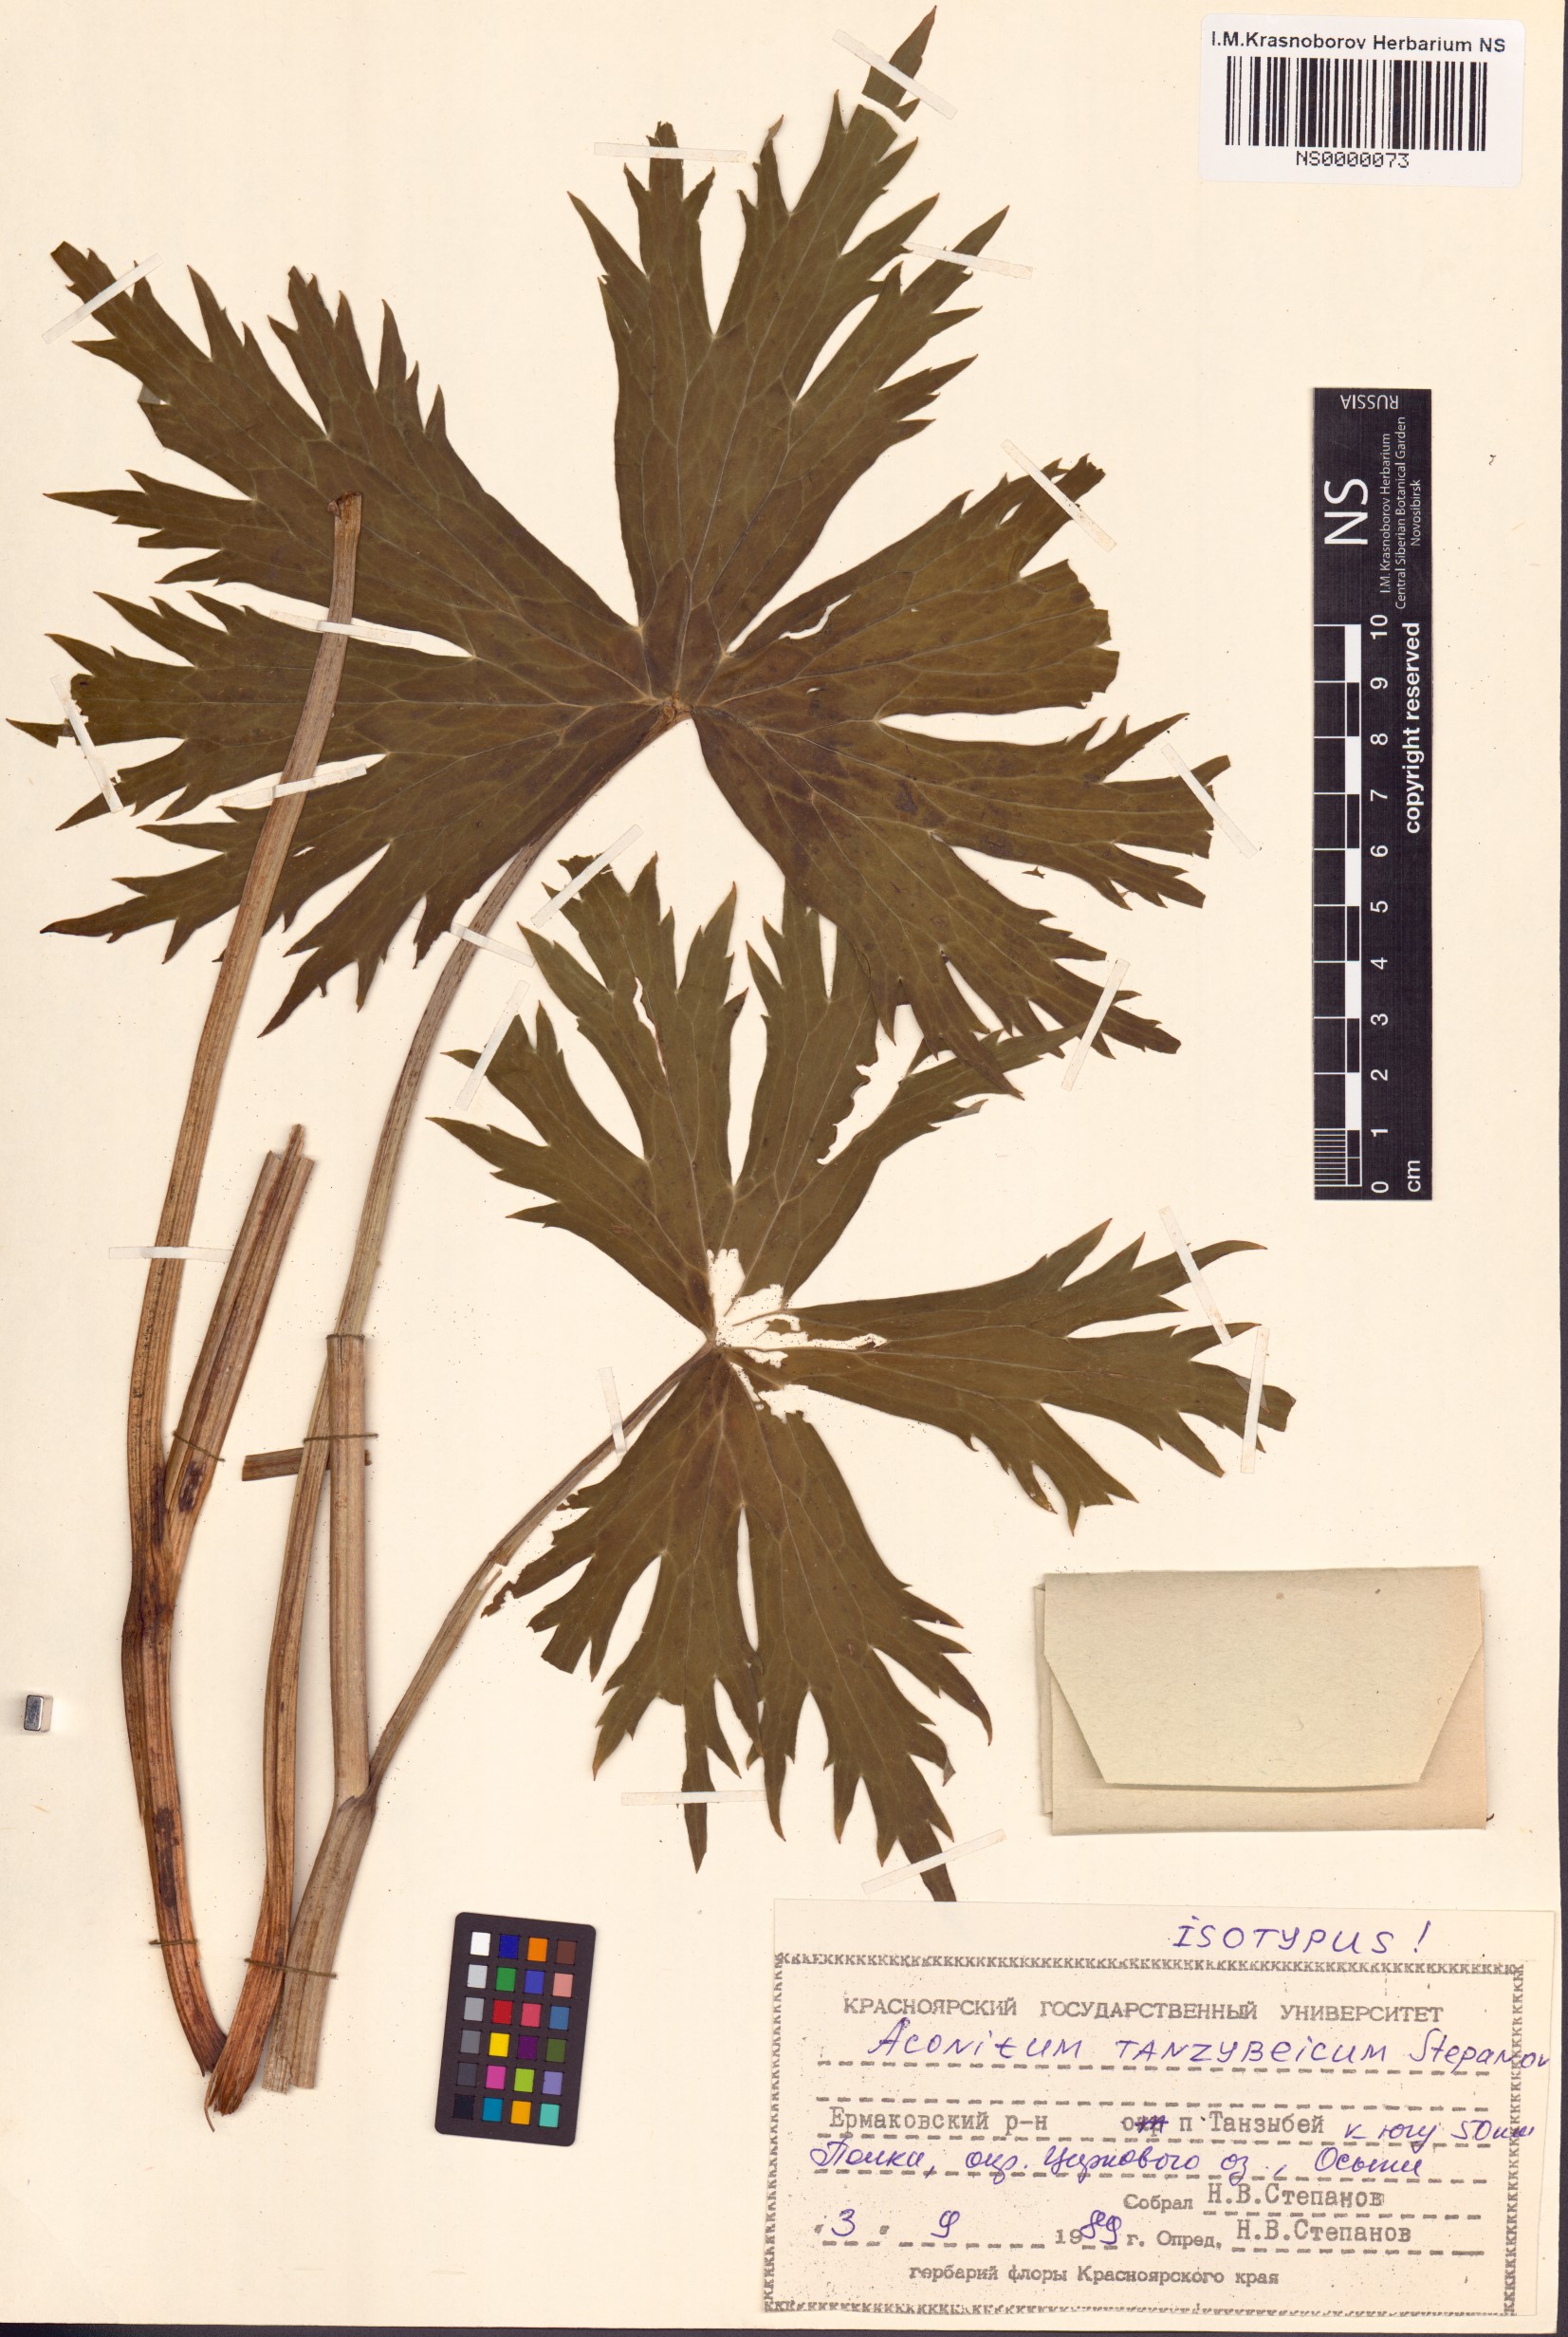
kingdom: Plantae
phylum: Tracheophyta
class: Magnoliopsida
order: Ranunculales
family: Ranunculaceae
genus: Aconitum
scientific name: Aconitum tanzybeicum
